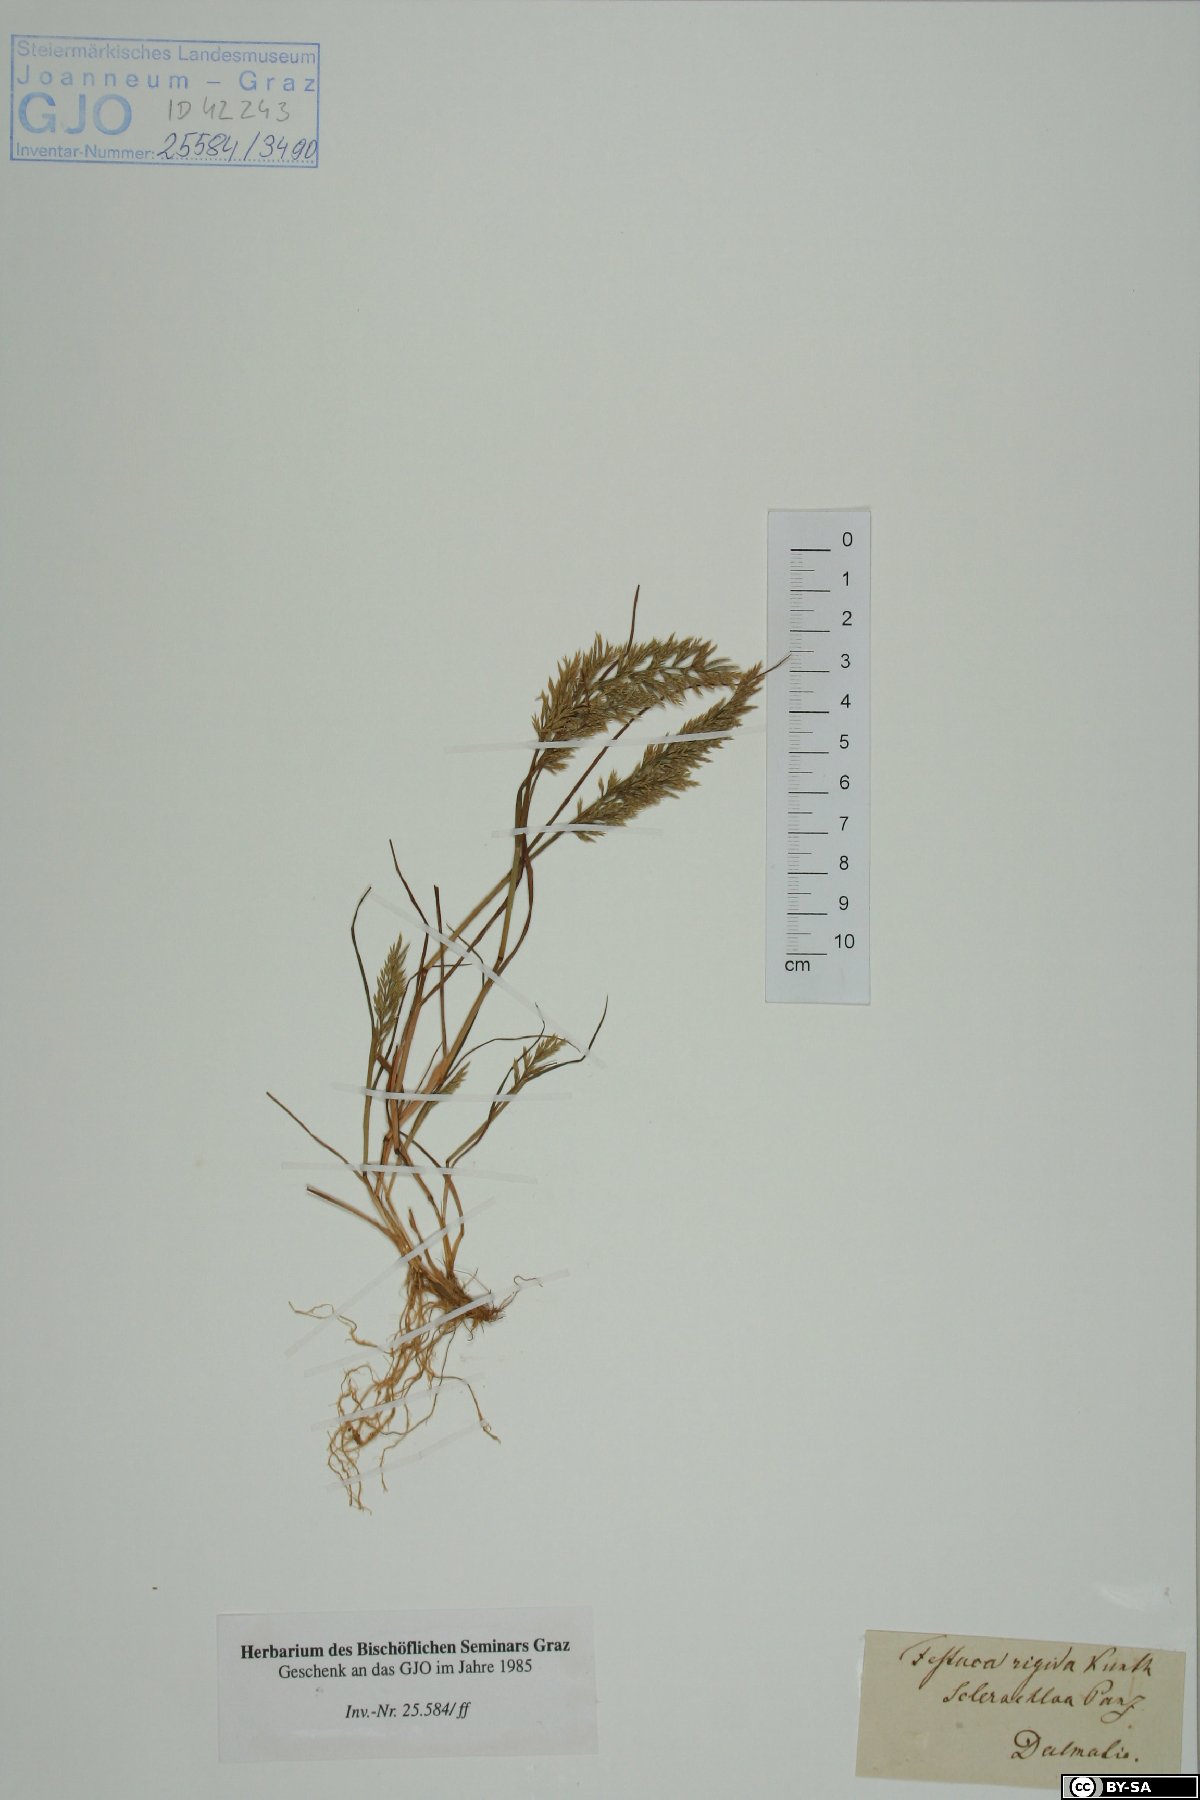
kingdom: Plantae
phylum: Tracheophyta
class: Liliopsida
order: Poales
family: Poaceae
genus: Catapodium
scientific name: Catapodium rigidum
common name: Fern-grass
